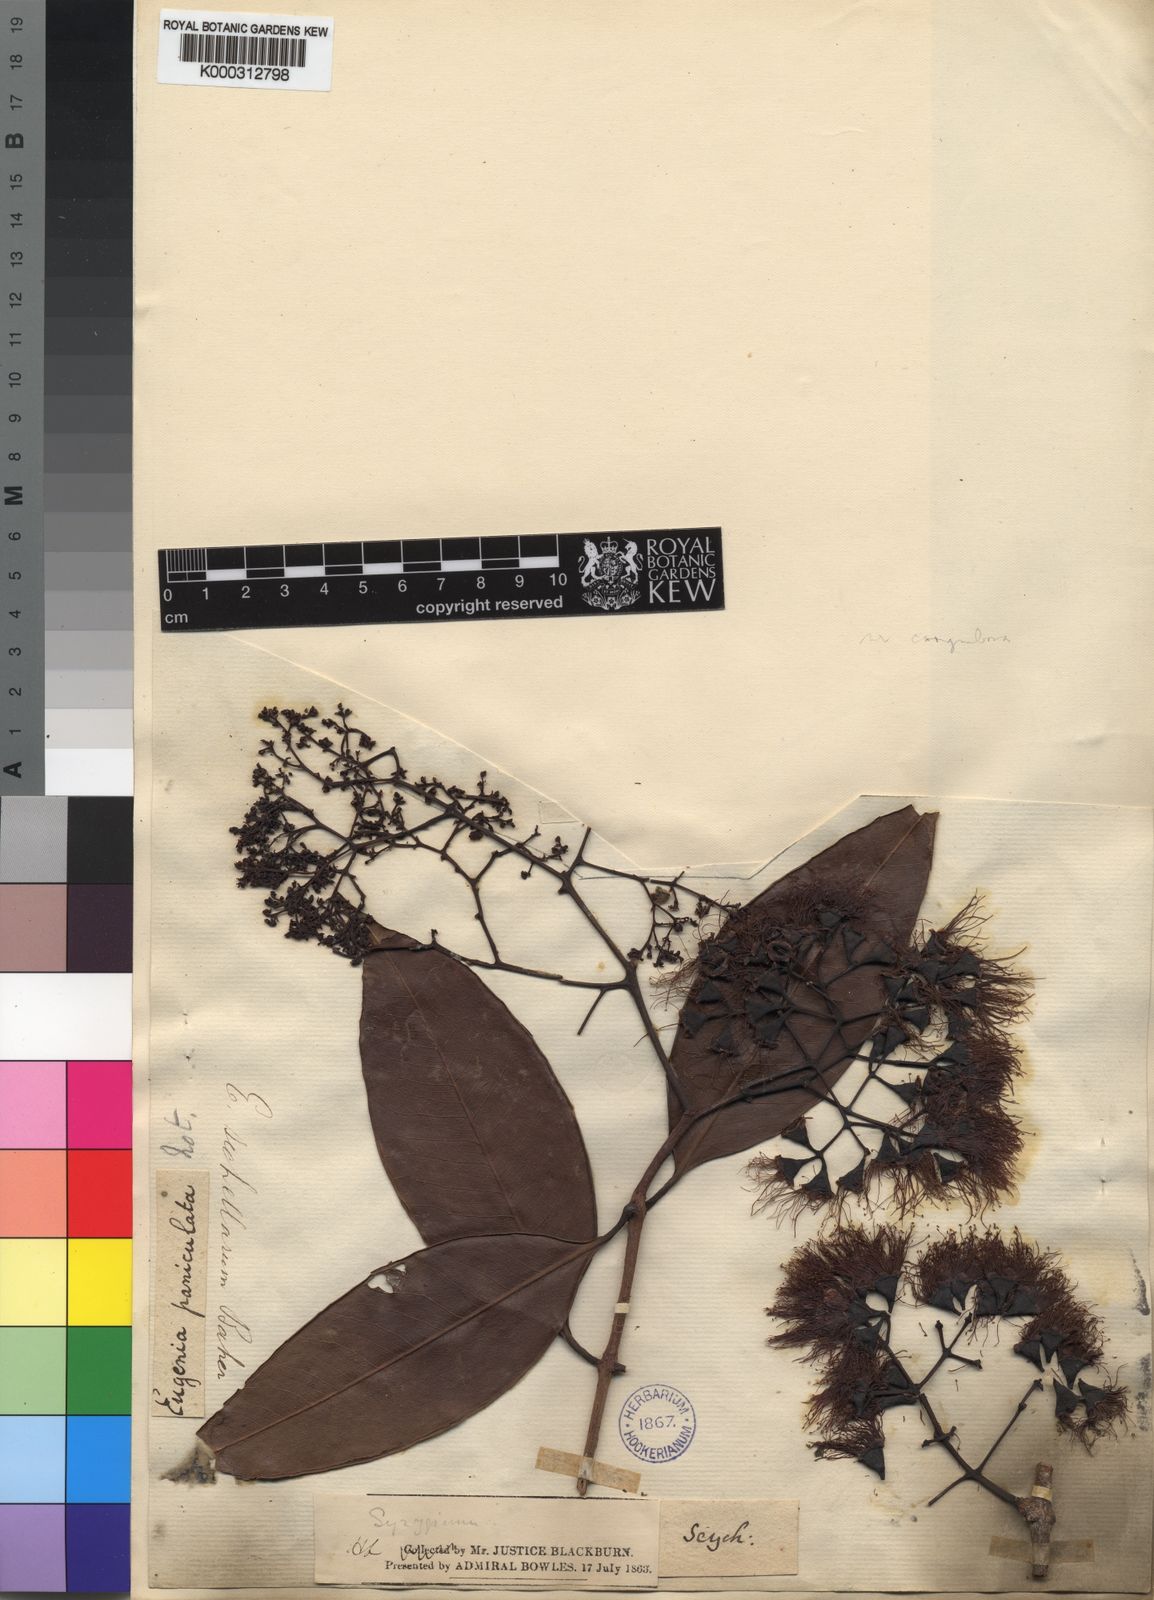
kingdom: Plantae
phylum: Tracheophyta
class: Magnoliopsida
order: Myrtales
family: Myrtaceae
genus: Syzygium
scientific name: Syzygium
